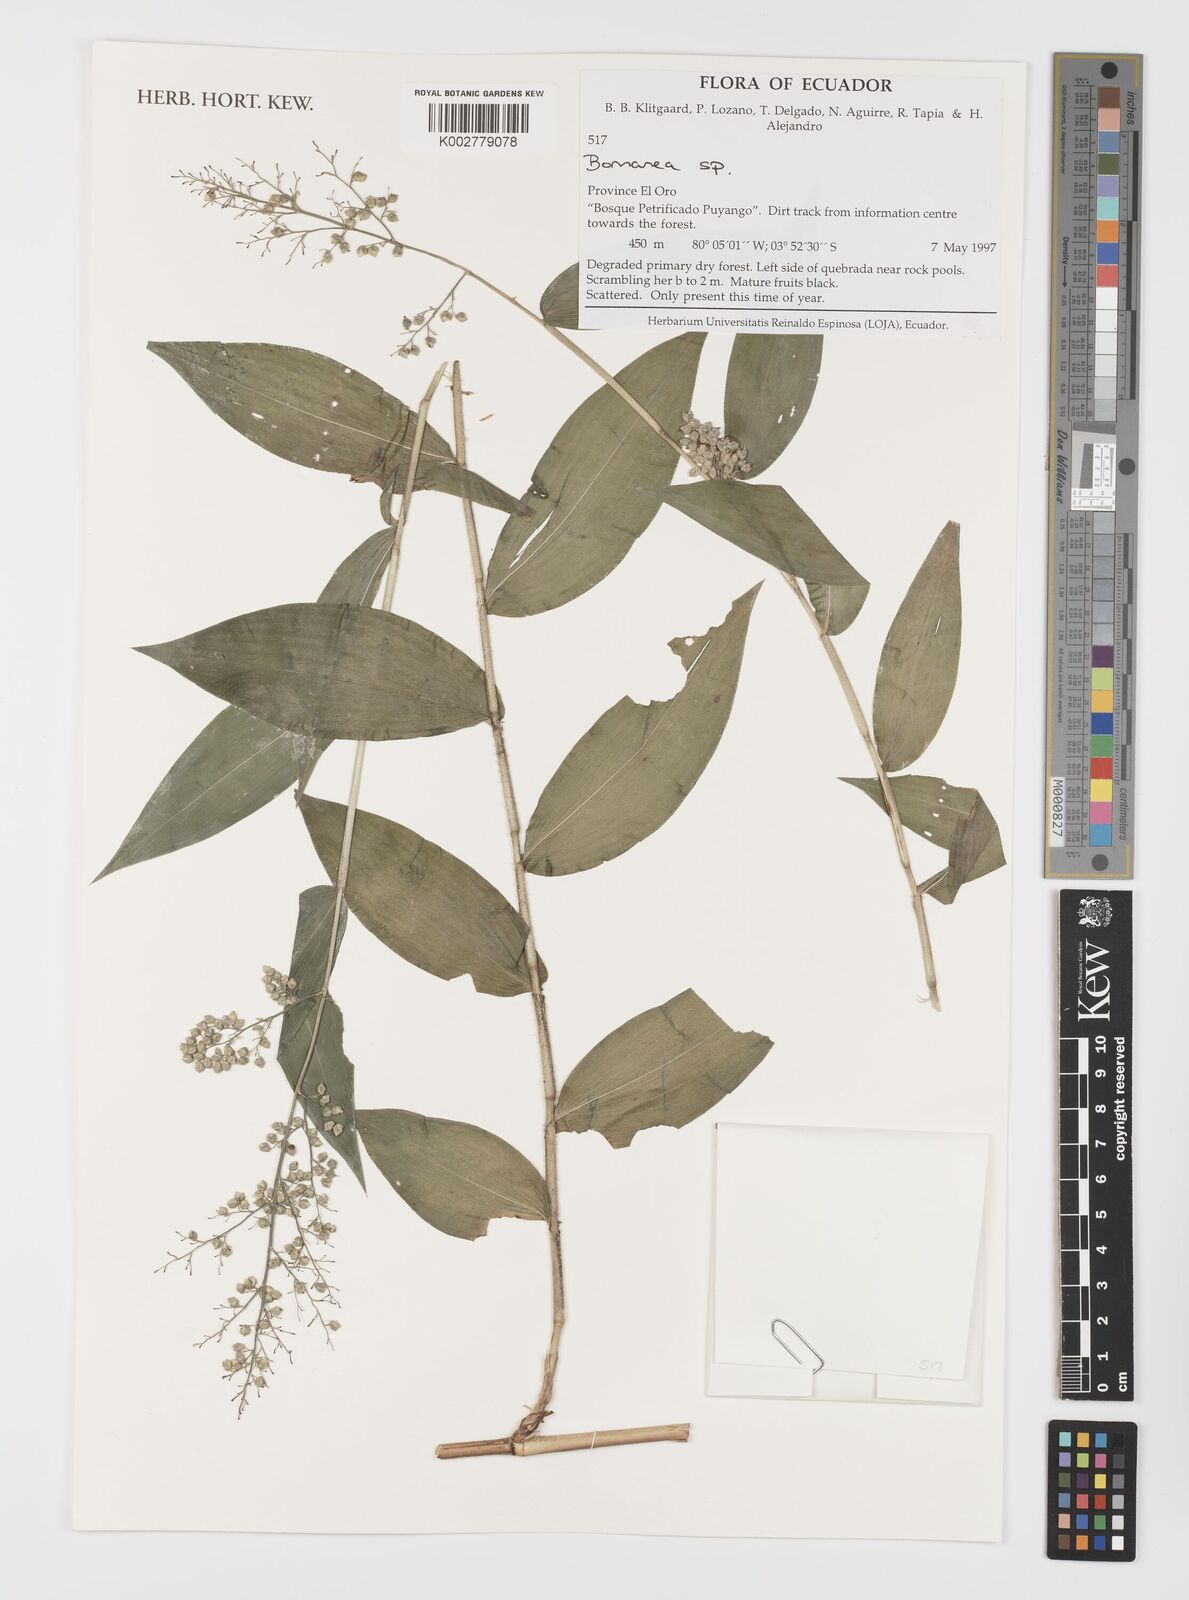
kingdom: Plantae
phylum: Tracheophyta
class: Liliopsida
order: Liliales
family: Alstroemeriaceae
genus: Bomarea
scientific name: Bomarea
